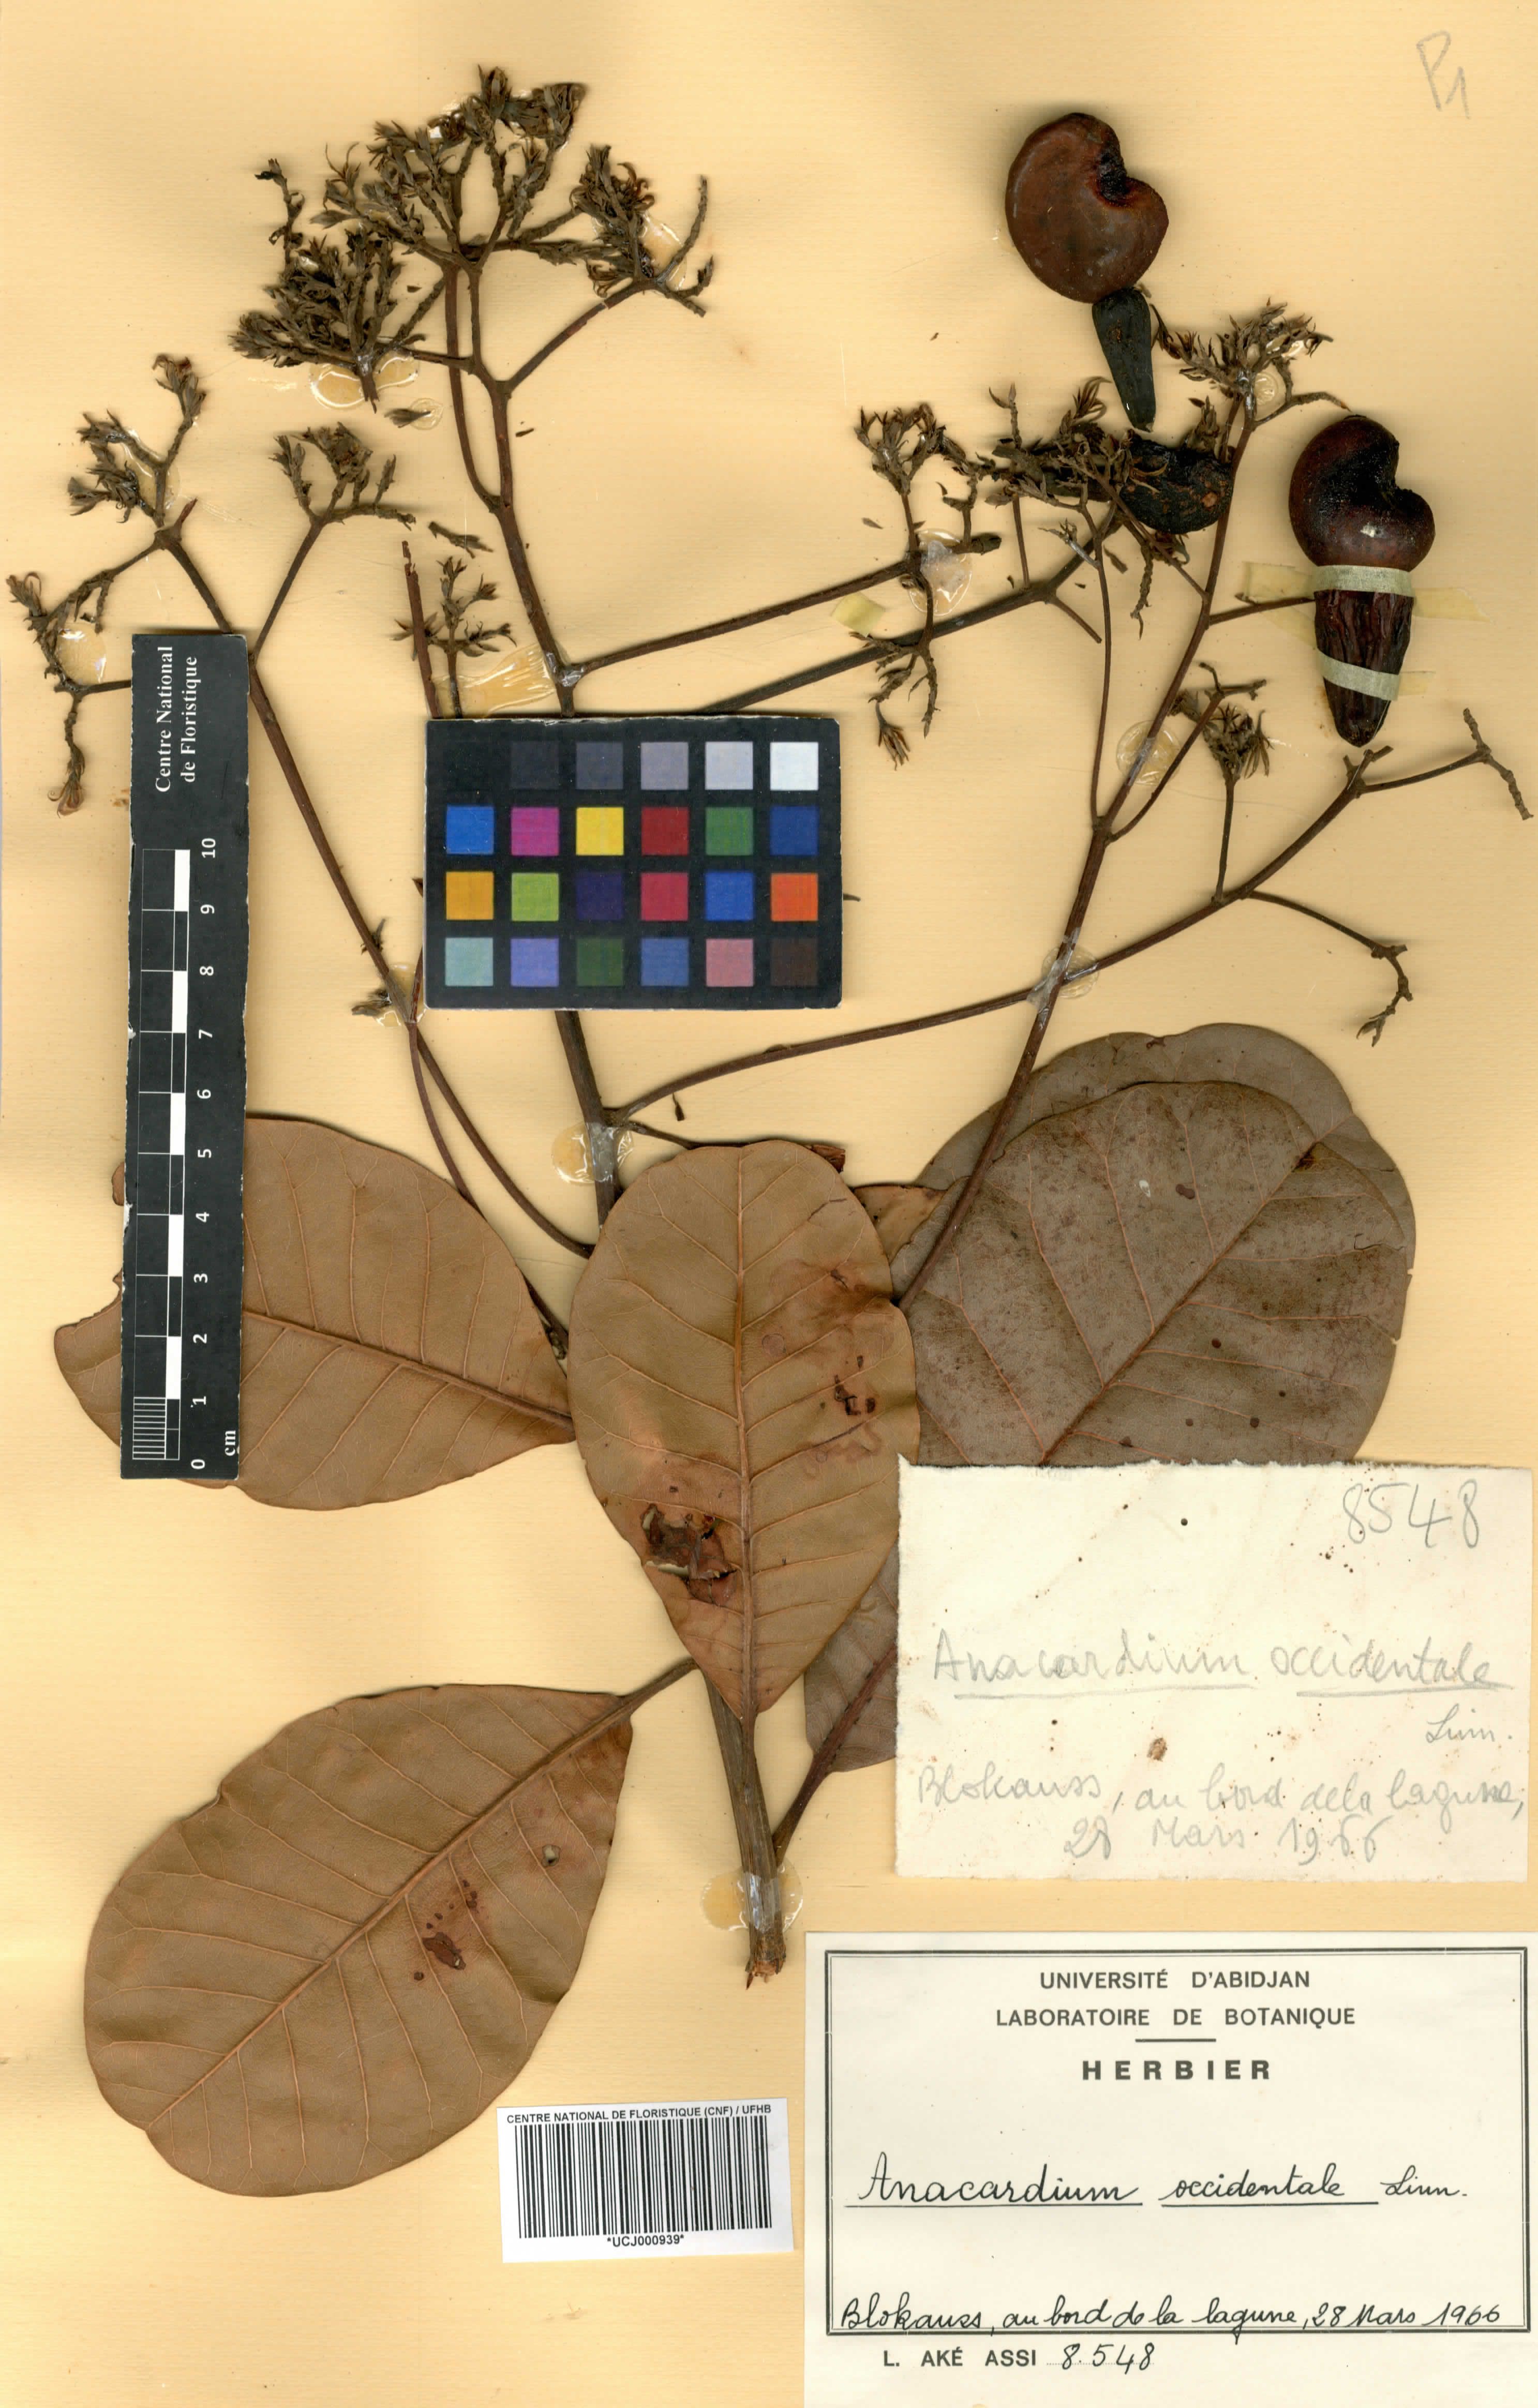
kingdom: Plantae
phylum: Tracheophyta
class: Magnoliopsida
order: Sapindales
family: Anacardiaceae
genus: Anacardium
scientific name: Anacardium occidentale
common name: Cashew
